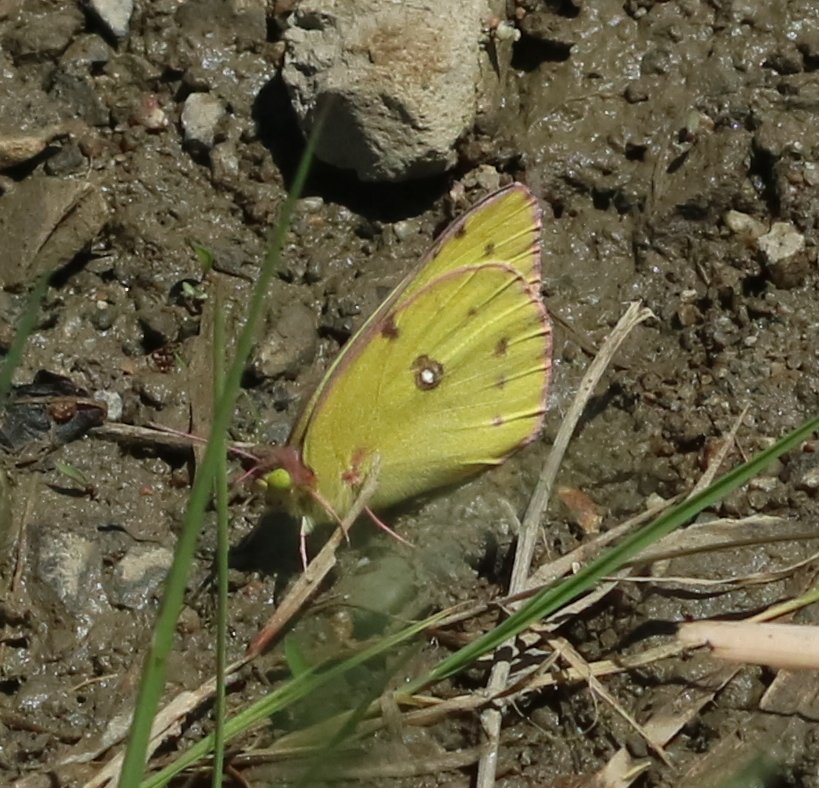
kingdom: Animalia
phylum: Arthropoda
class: Insecta
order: Lepidoptera
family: Pieridae
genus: Colias
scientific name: Colias philodice
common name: Clouded Sulphur
